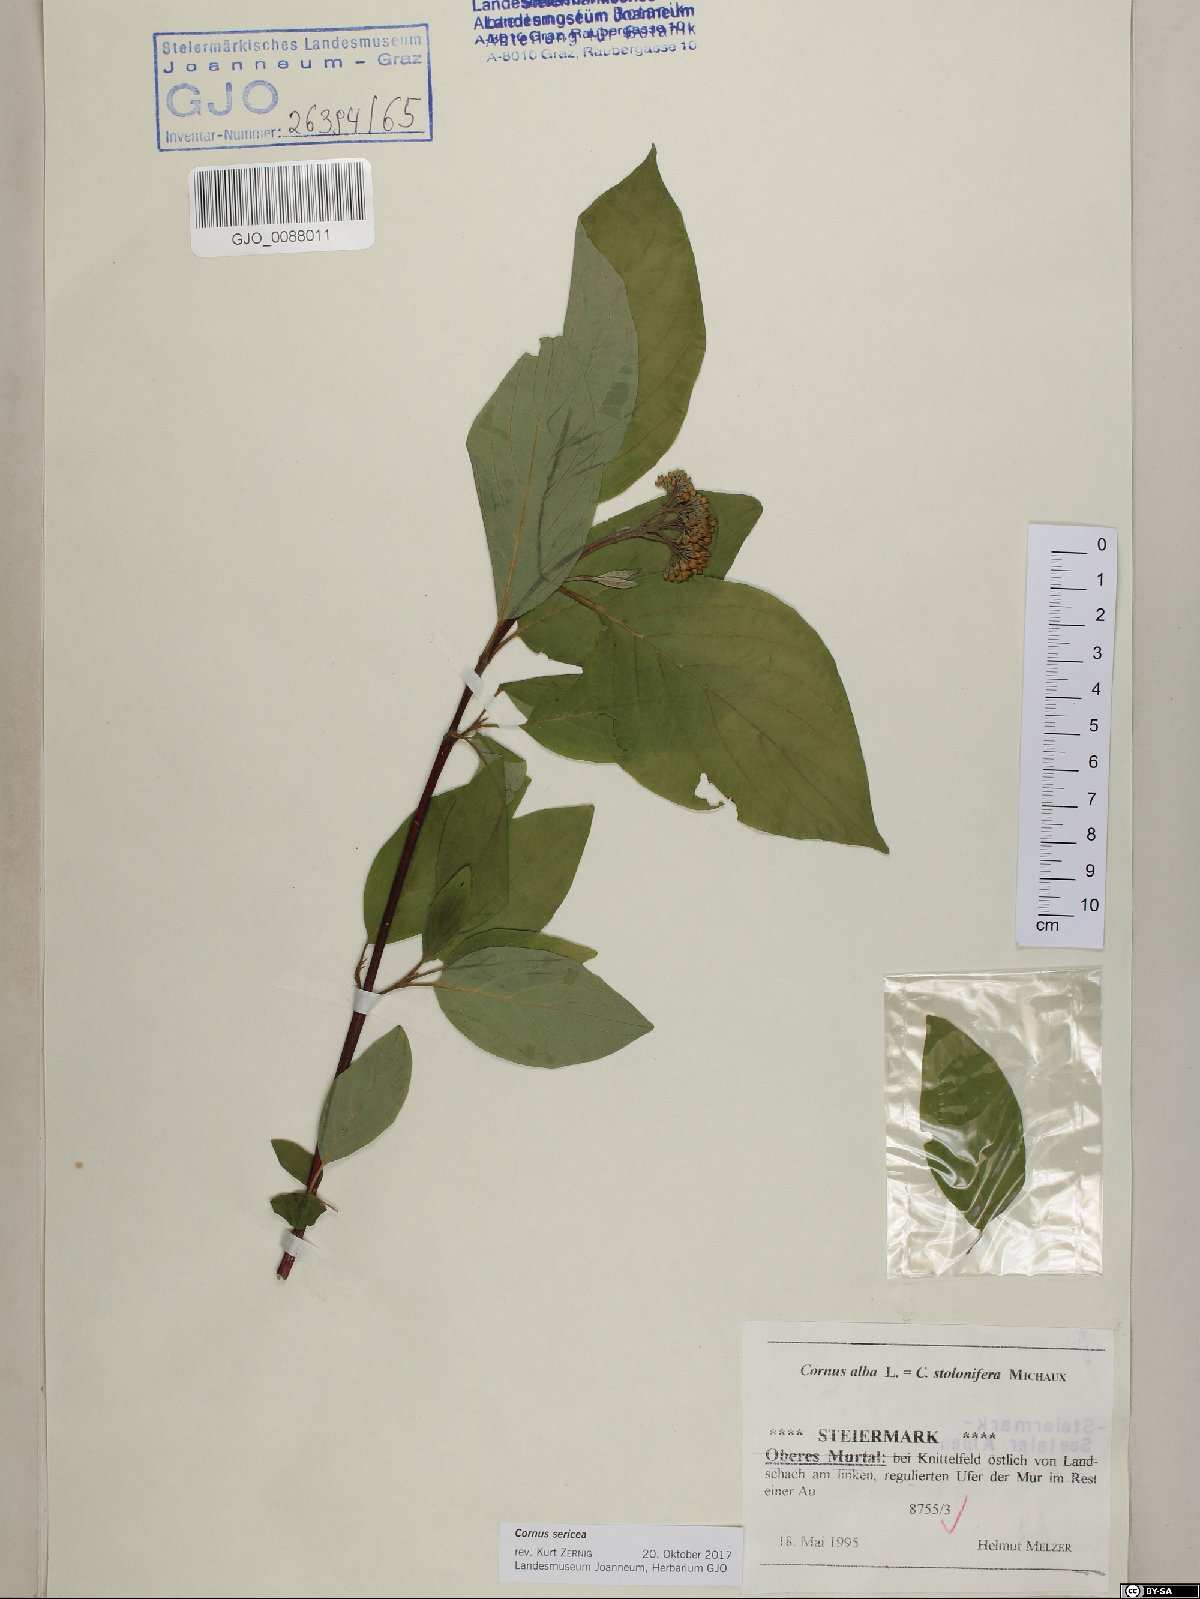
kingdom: Plantae
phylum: Tracheophyta
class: Magnoliopsida
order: Cornales
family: Cornaceae
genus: Cornus
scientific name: Cornus sericea
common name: Red-osier dogwood
